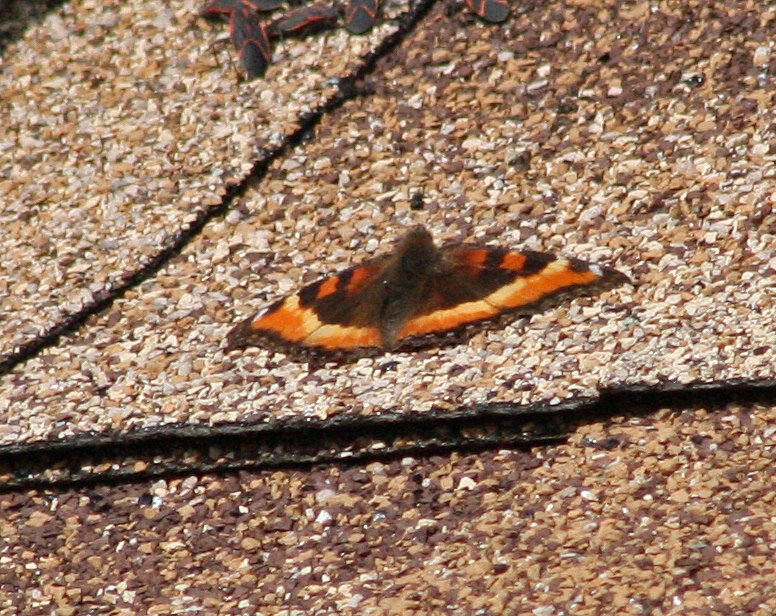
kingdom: Animalia
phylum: Arthropoda
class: Insecta
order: Lepidoptera
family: Nymphalidae
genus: Aglais
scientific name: Aglais milberti
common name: Milbert's Tortoiseshell
